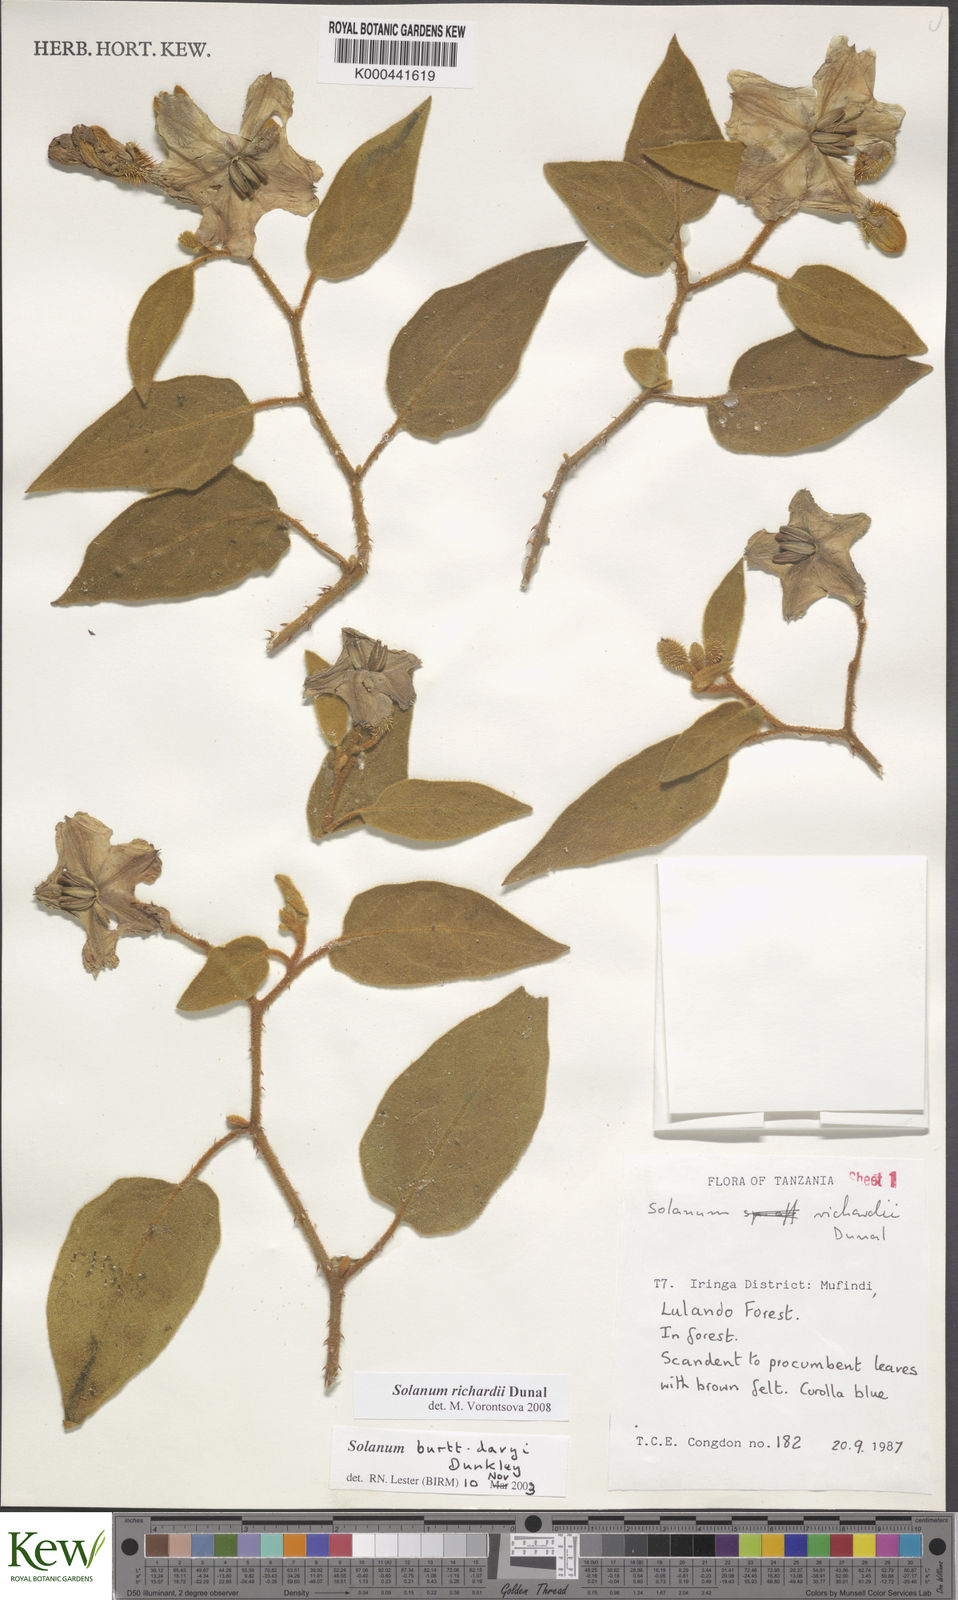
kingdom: Plantae
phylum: Tracheophyta
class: Magnoliopsida
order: Solanales
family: Solanaceae
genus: Solanum
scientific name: Solanum richardii
